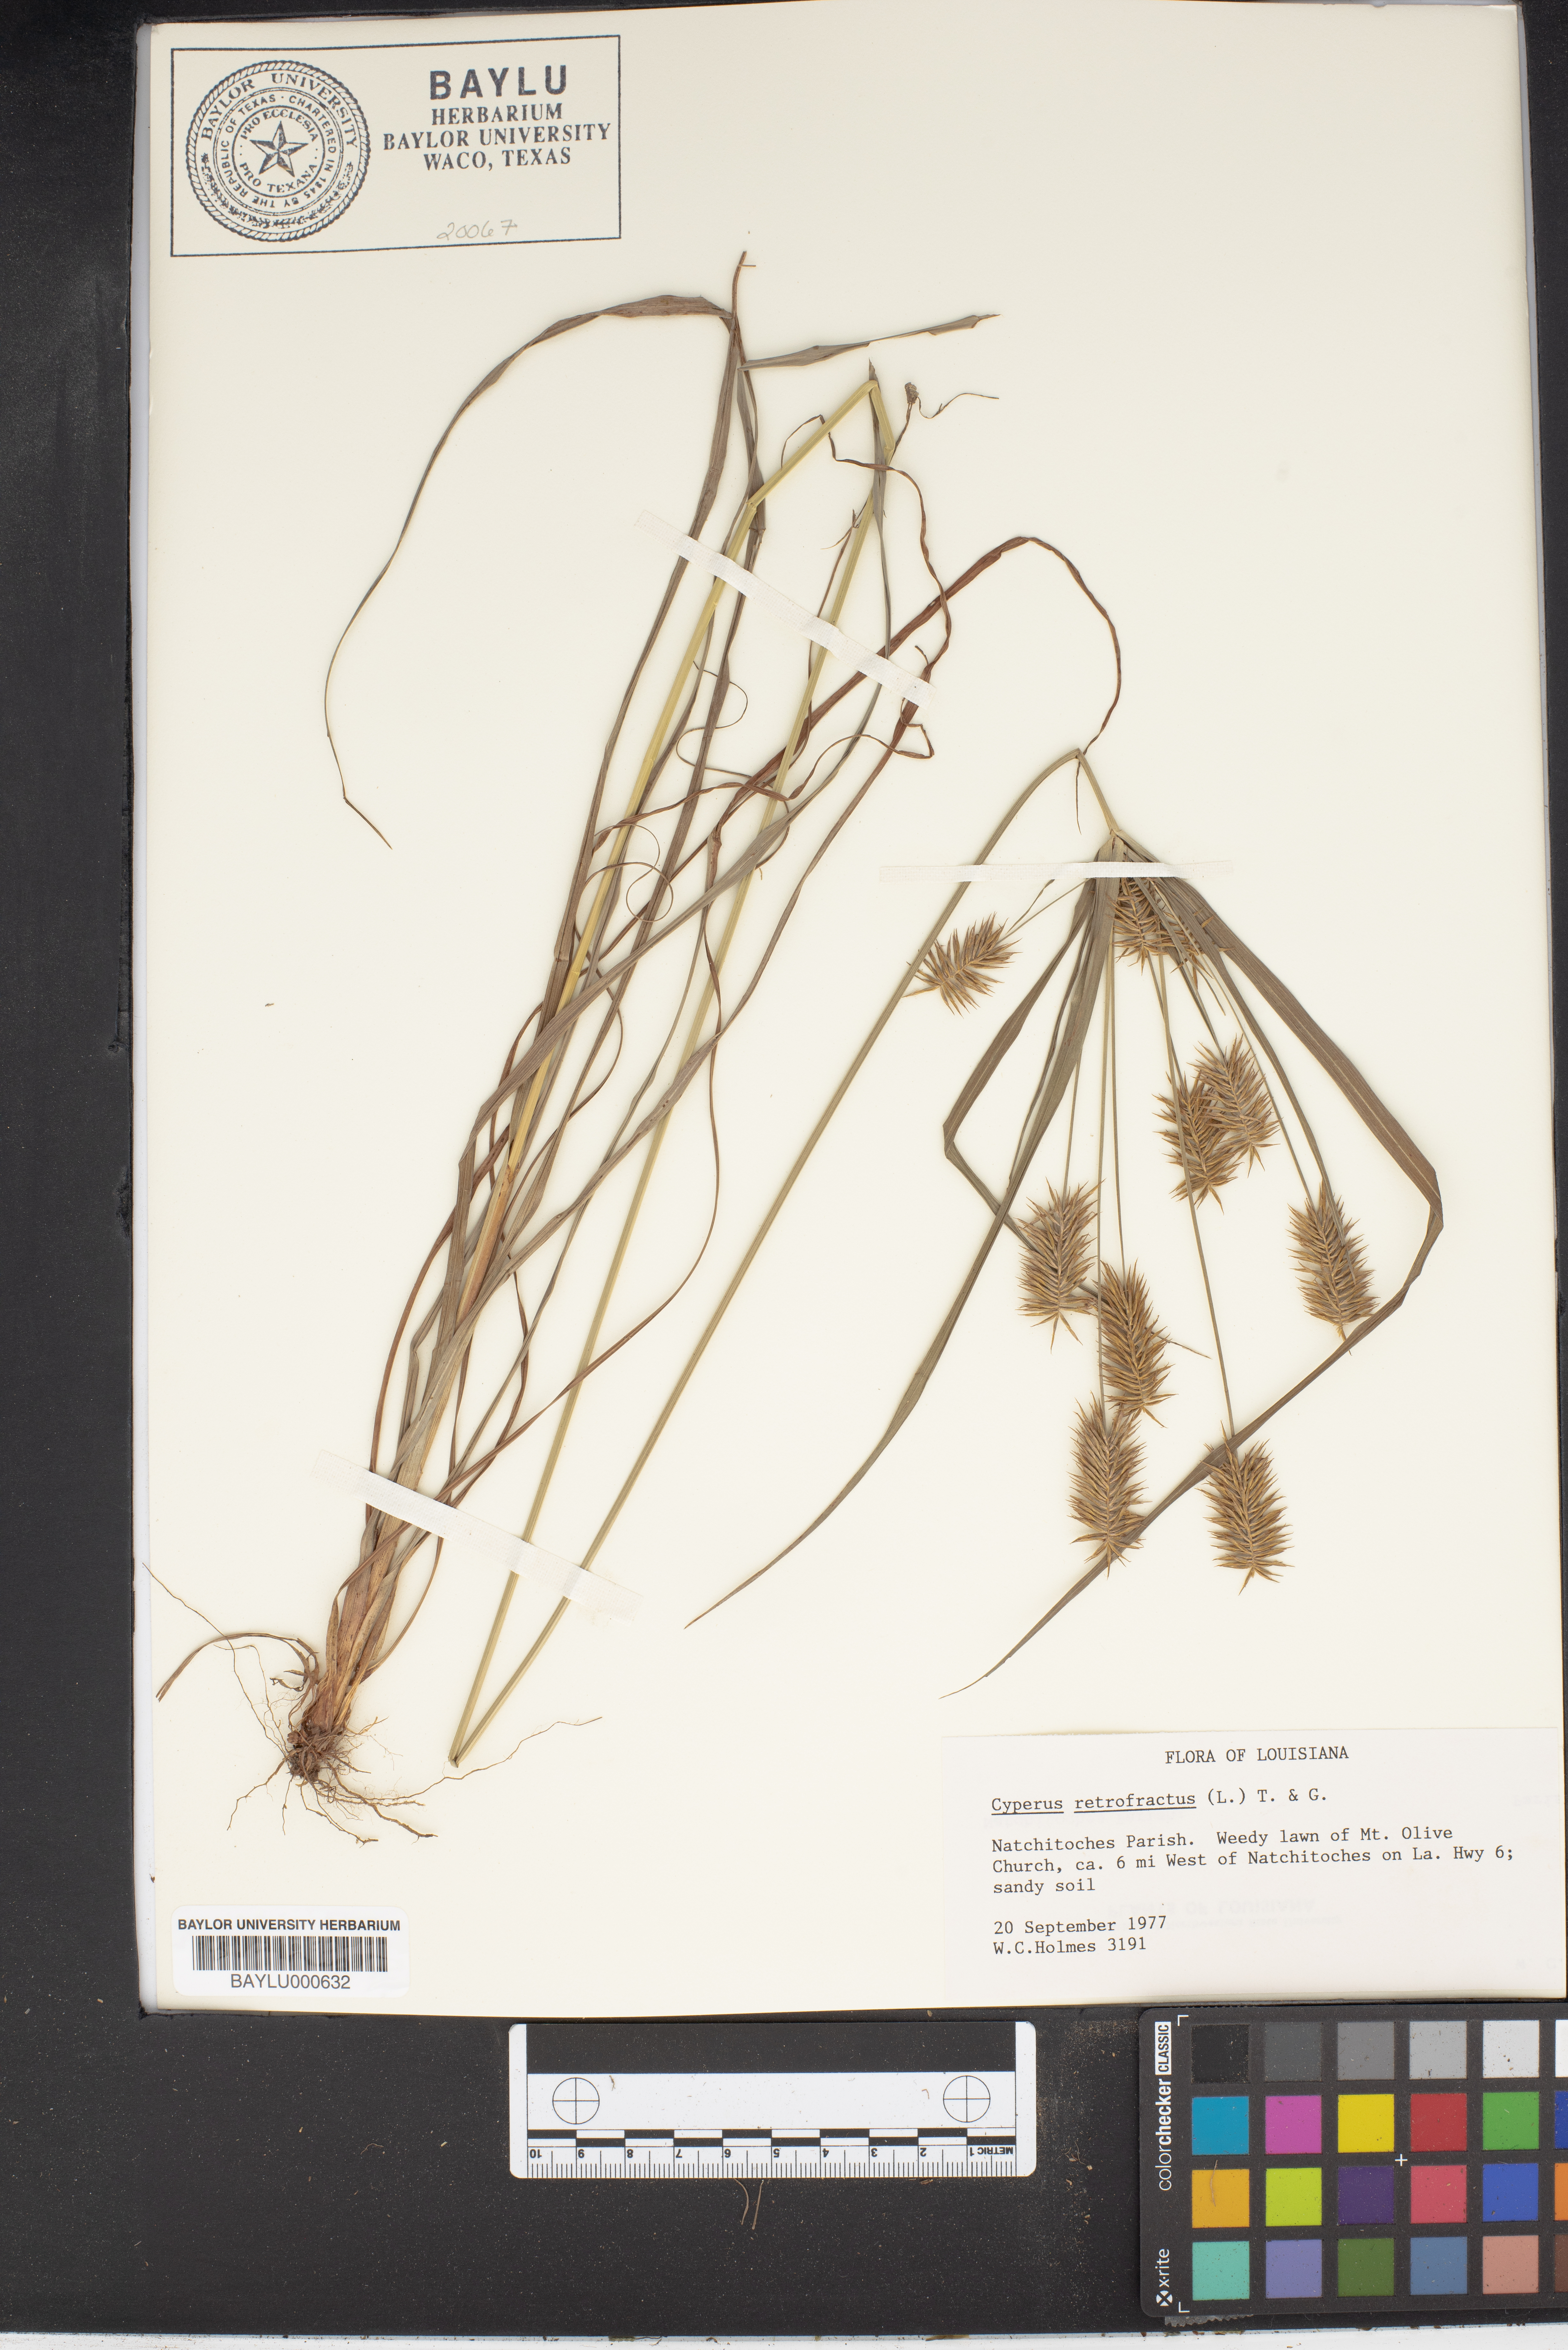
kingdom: Plantae
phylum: Tracheophyta
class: Liliopsida
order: Poales
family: Cyperaceae
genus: Cyperus
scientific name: Cyperus retrofractus
